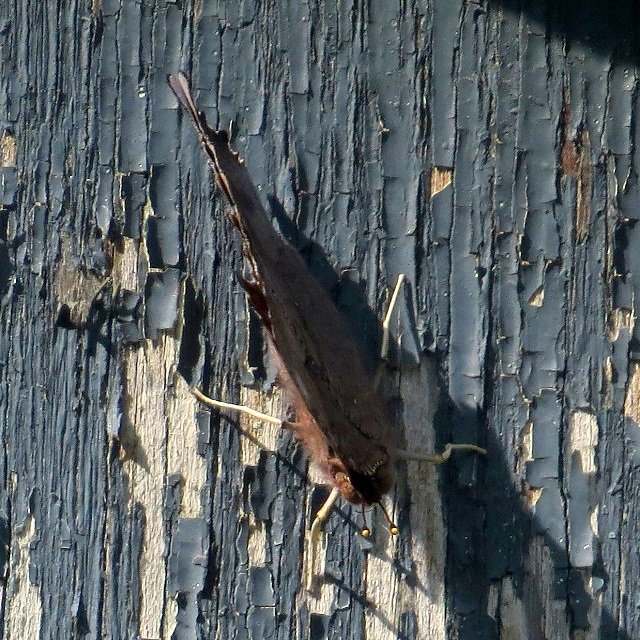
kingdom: Animalia
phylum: Arthropoda
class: Insecta
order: Lepidoptera
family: Nymphalidae
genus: Polygonia
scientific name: Polygonia interrogationis
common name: Question Mark
